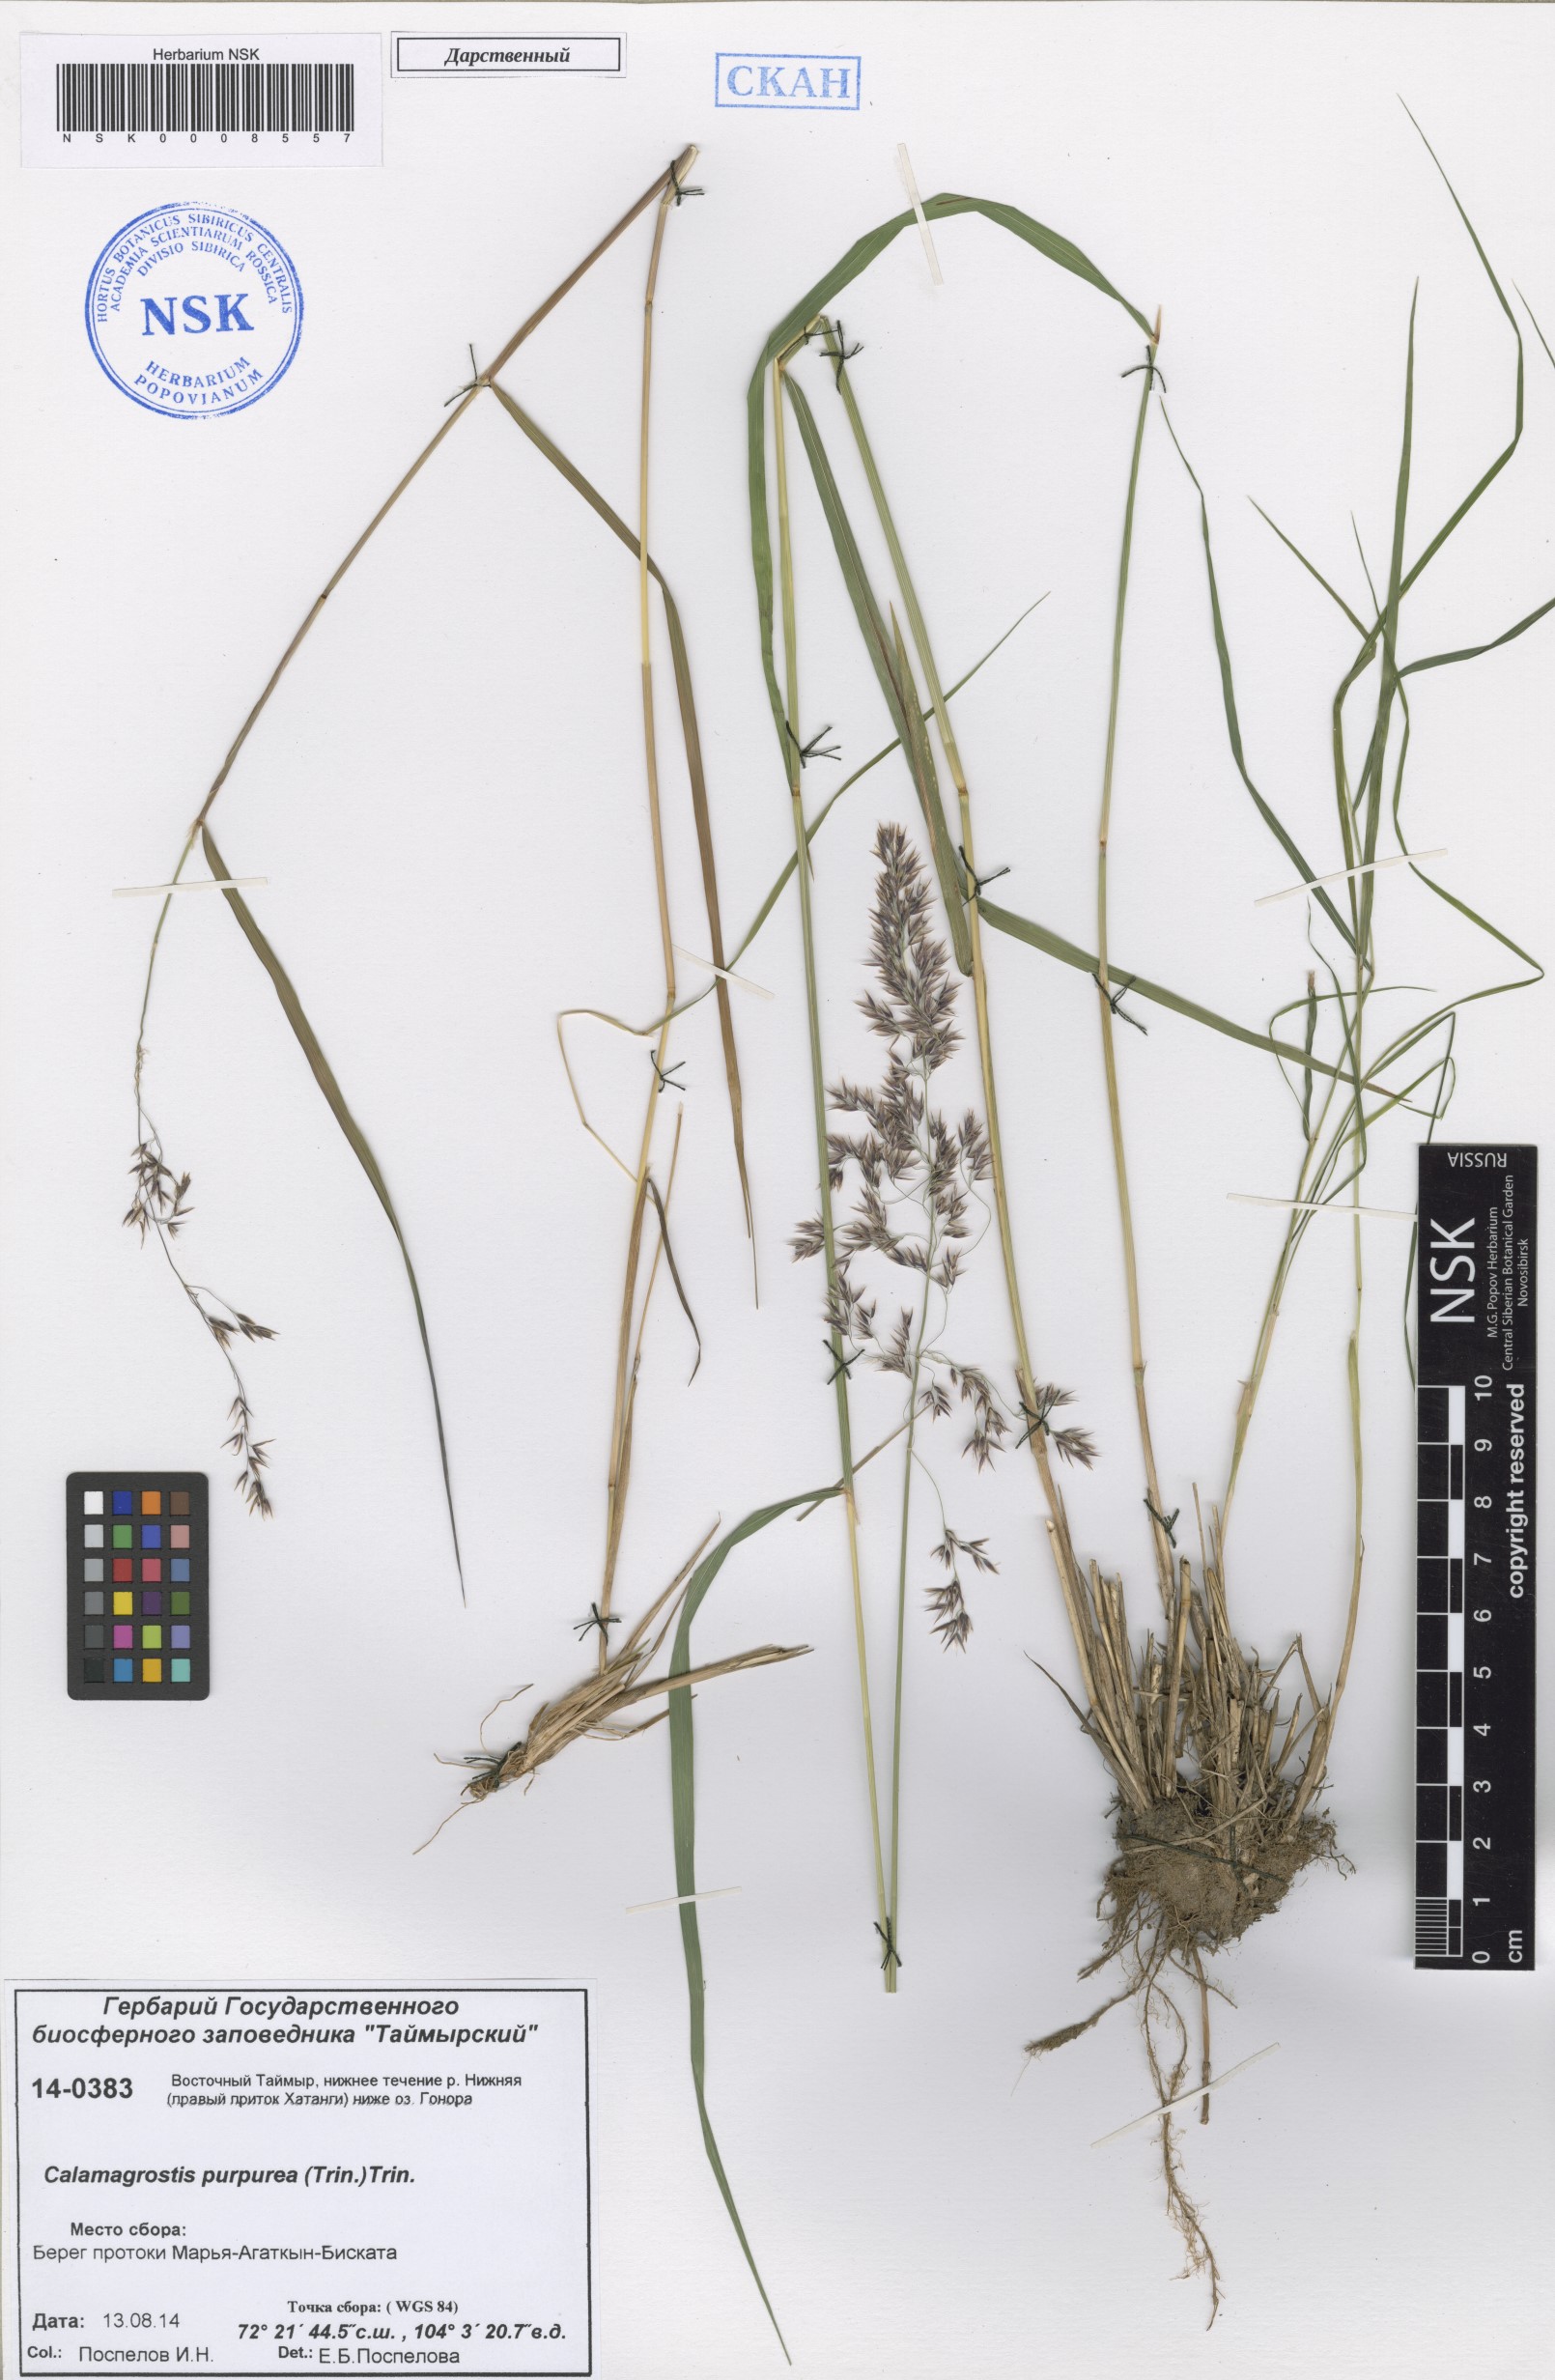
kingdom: Plantae
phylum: Tracheophyta
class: Liliopsida
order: Poales
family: Poaceae
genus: Calamagrostis
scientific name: Calamagrostis purpurea
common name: Scandinavian small-reed
